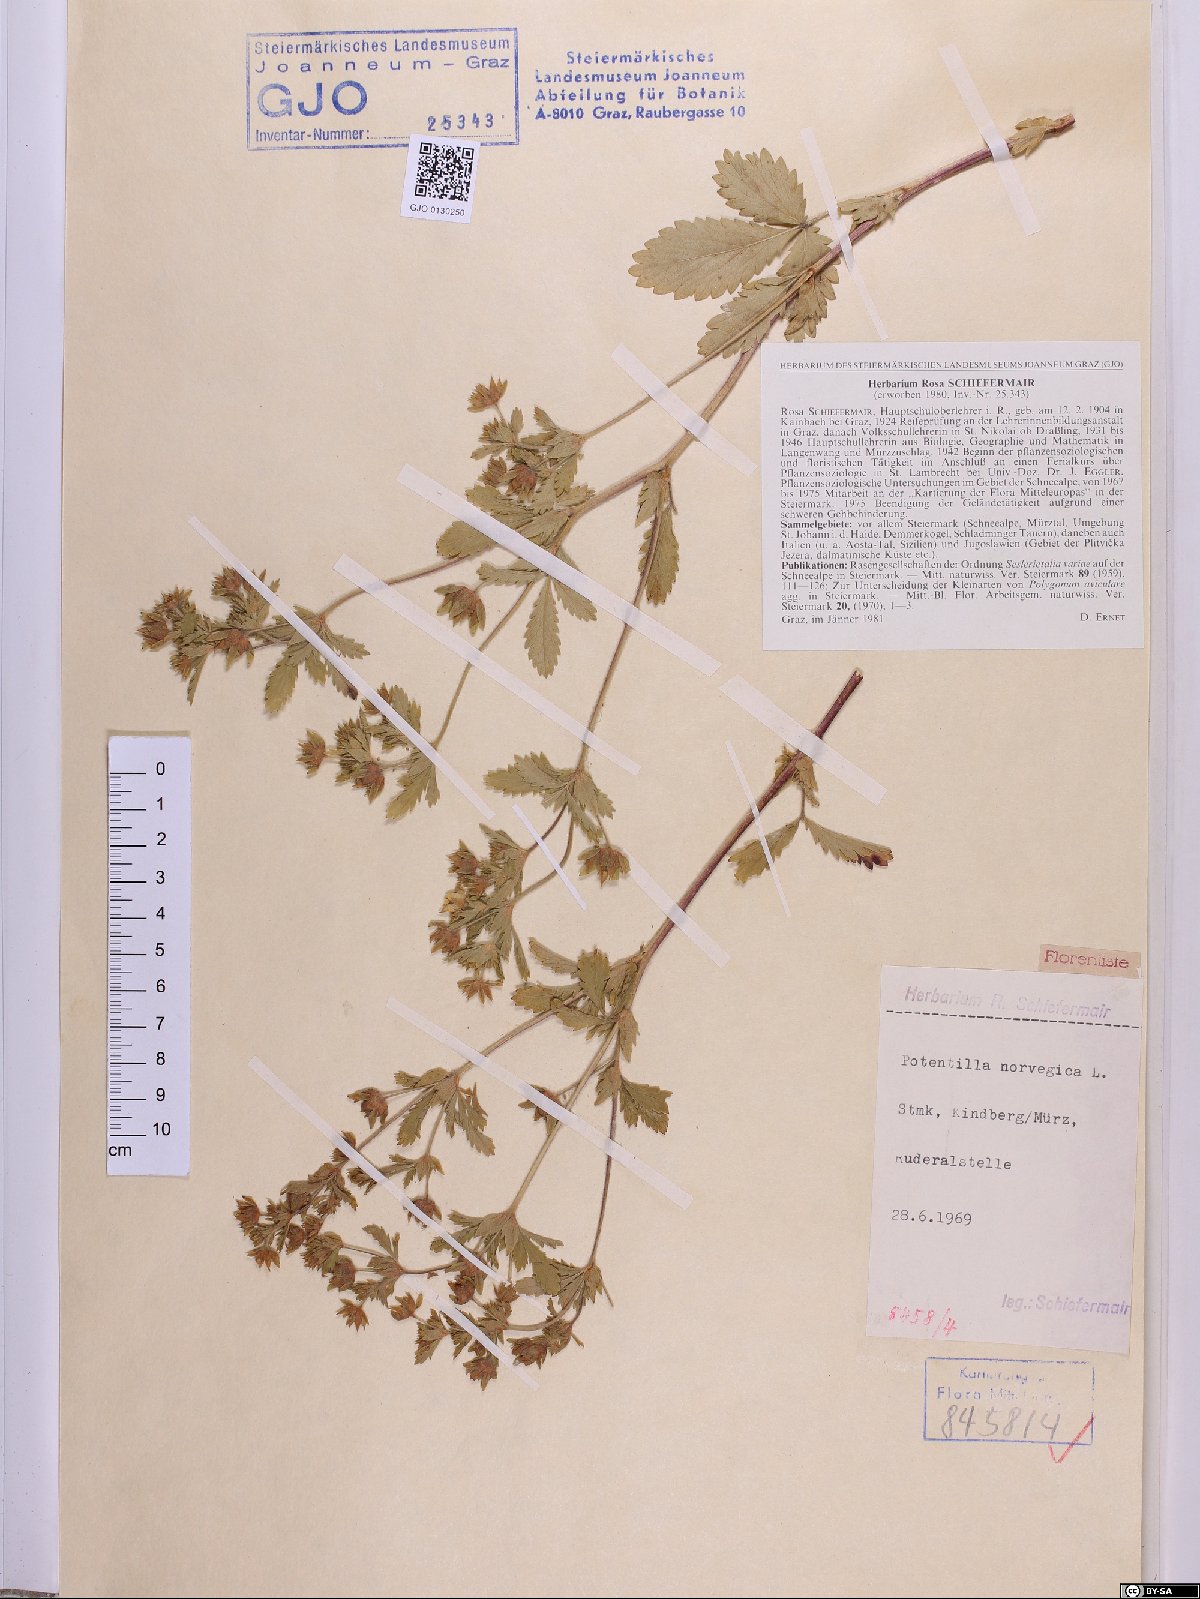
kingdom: Plantae
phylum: Tracheophyta
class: Magnoliopsida
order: Rosales
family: Rosaceae
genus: Potentilla
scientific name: Potentilla norvegica
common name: Ternate-leaved cinquefoil
